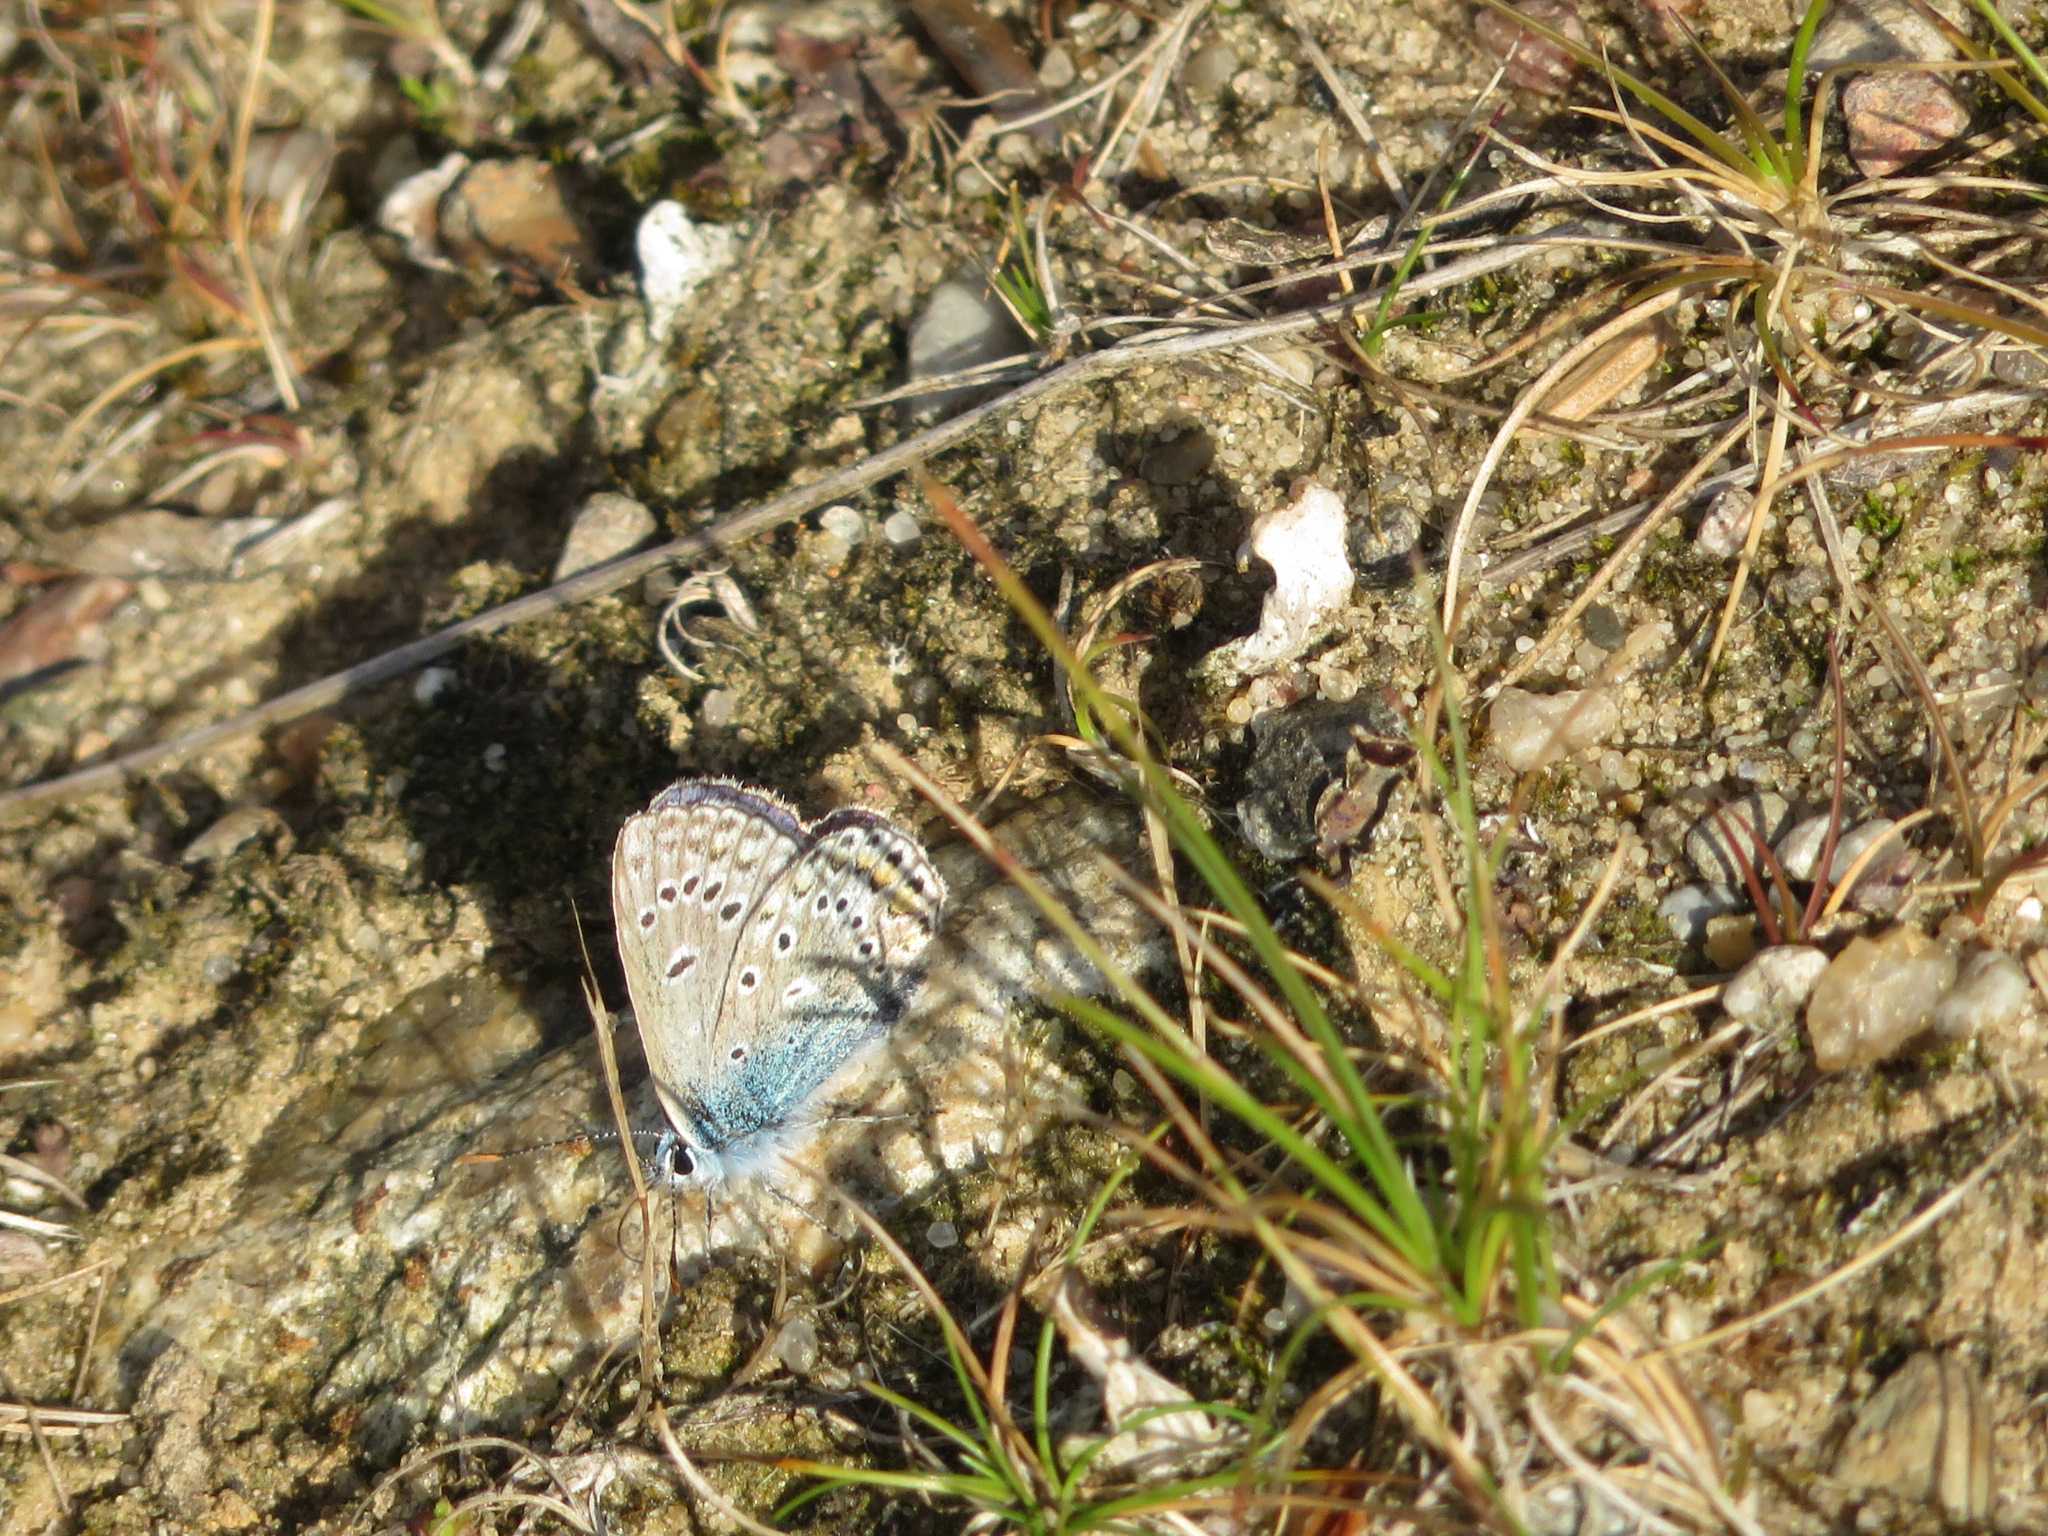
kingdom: Animalia
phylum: Arthropoda
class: Insecta
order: Lepidoptera
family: Lycaenidae
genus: Polyommatus
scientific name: Polyommatus icarus
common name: Almindelig blåfugl
